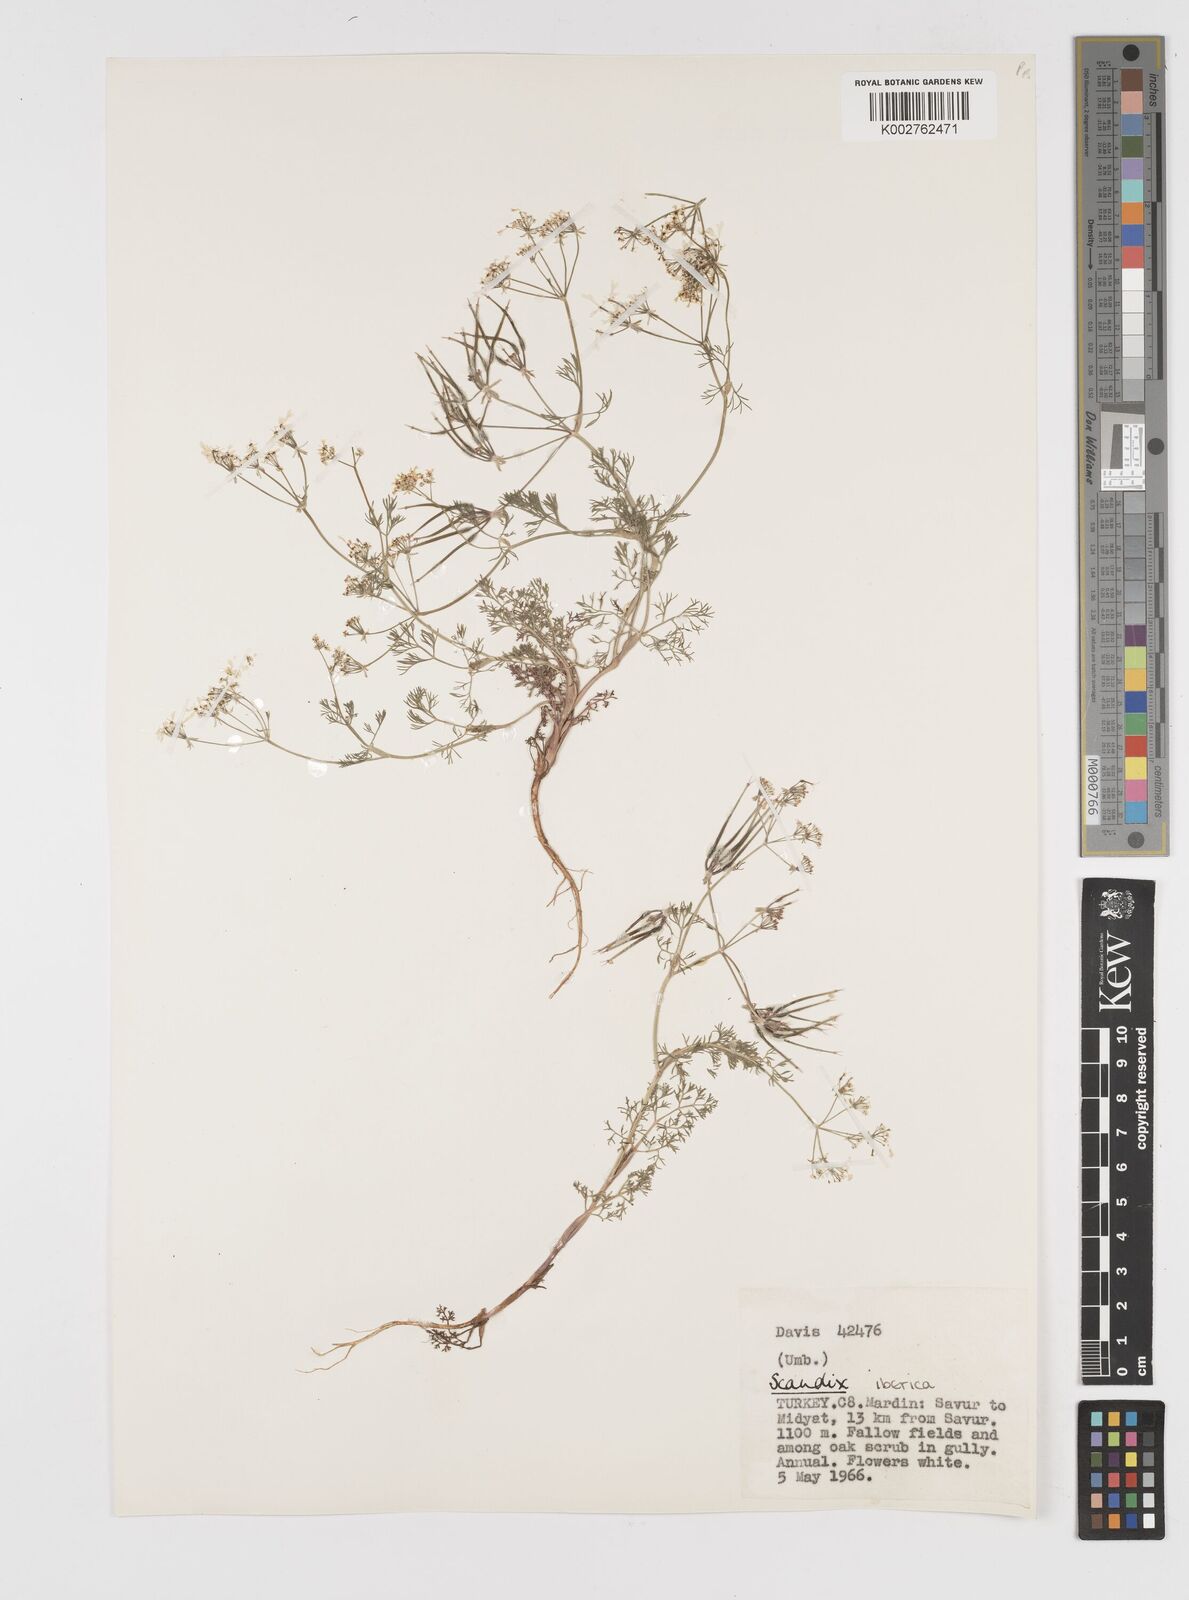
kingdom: Plantae
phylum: Tracheophyta
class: Magnoliopsida
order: Apiales
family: Apiaceae
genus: Scandix
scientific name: Scandix iberica
